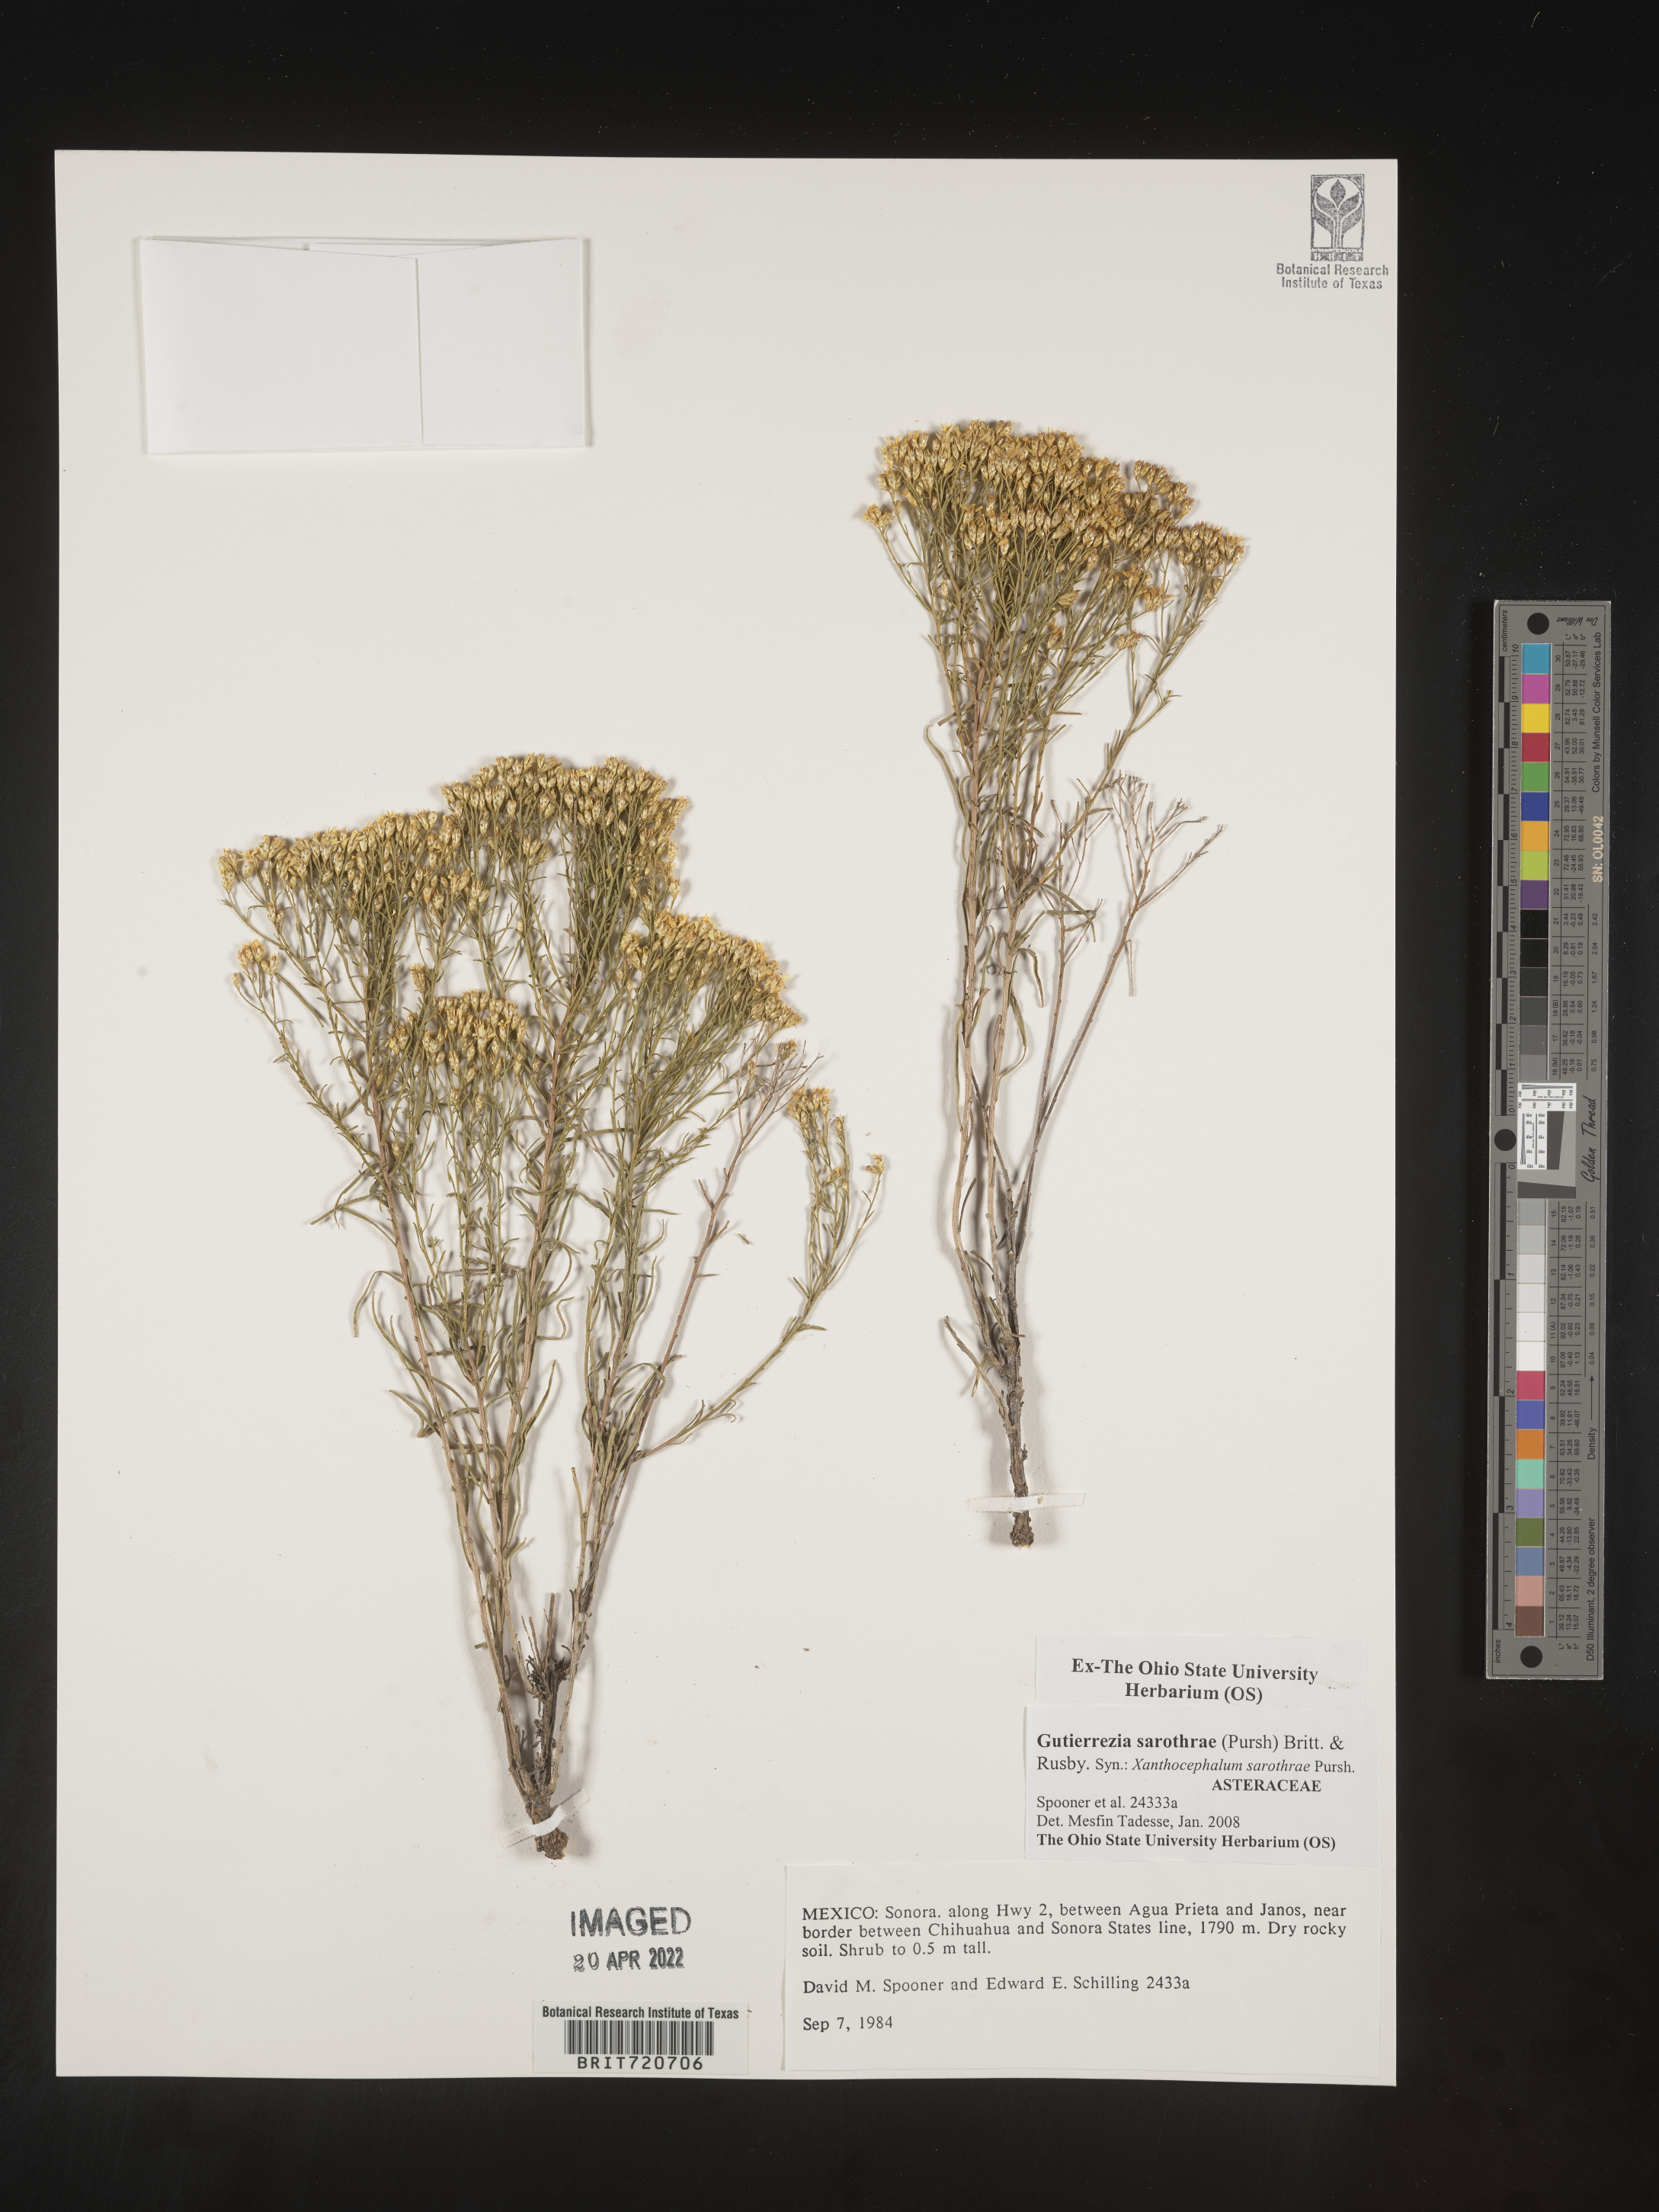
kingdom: Plantae
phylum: Tracheophyta
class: Magnoliopsida
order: Asterales
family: Asteraceae
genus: Gutierrezia
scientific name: Gutierrezia sarothrae
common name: Broom snakeweed
